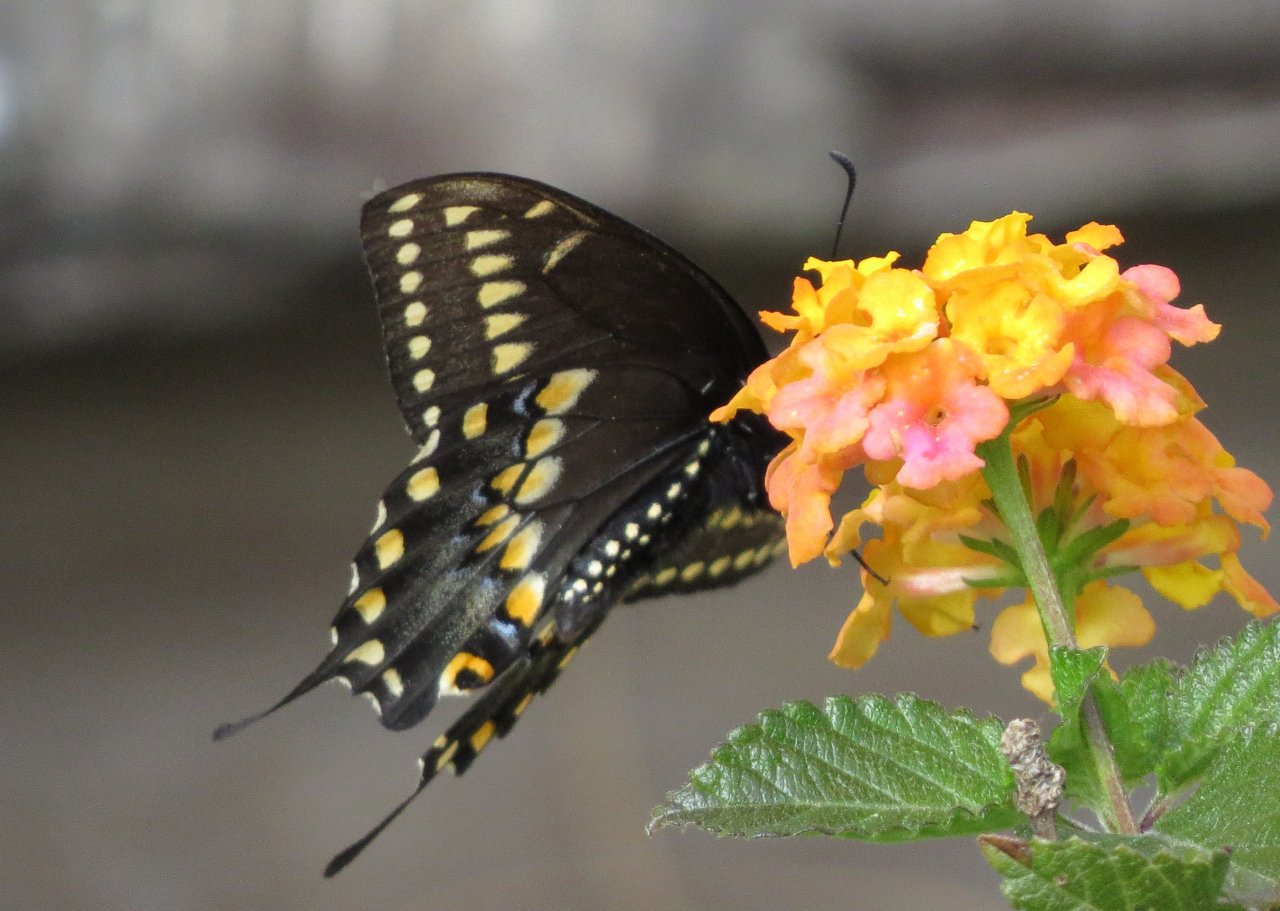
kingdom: Animalia
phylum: Arthropoda
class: Insecta
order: Lepidoptera
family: Papilionidae
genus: Papilio
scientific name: Papilio polyxenes
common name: Black Swallowtail
